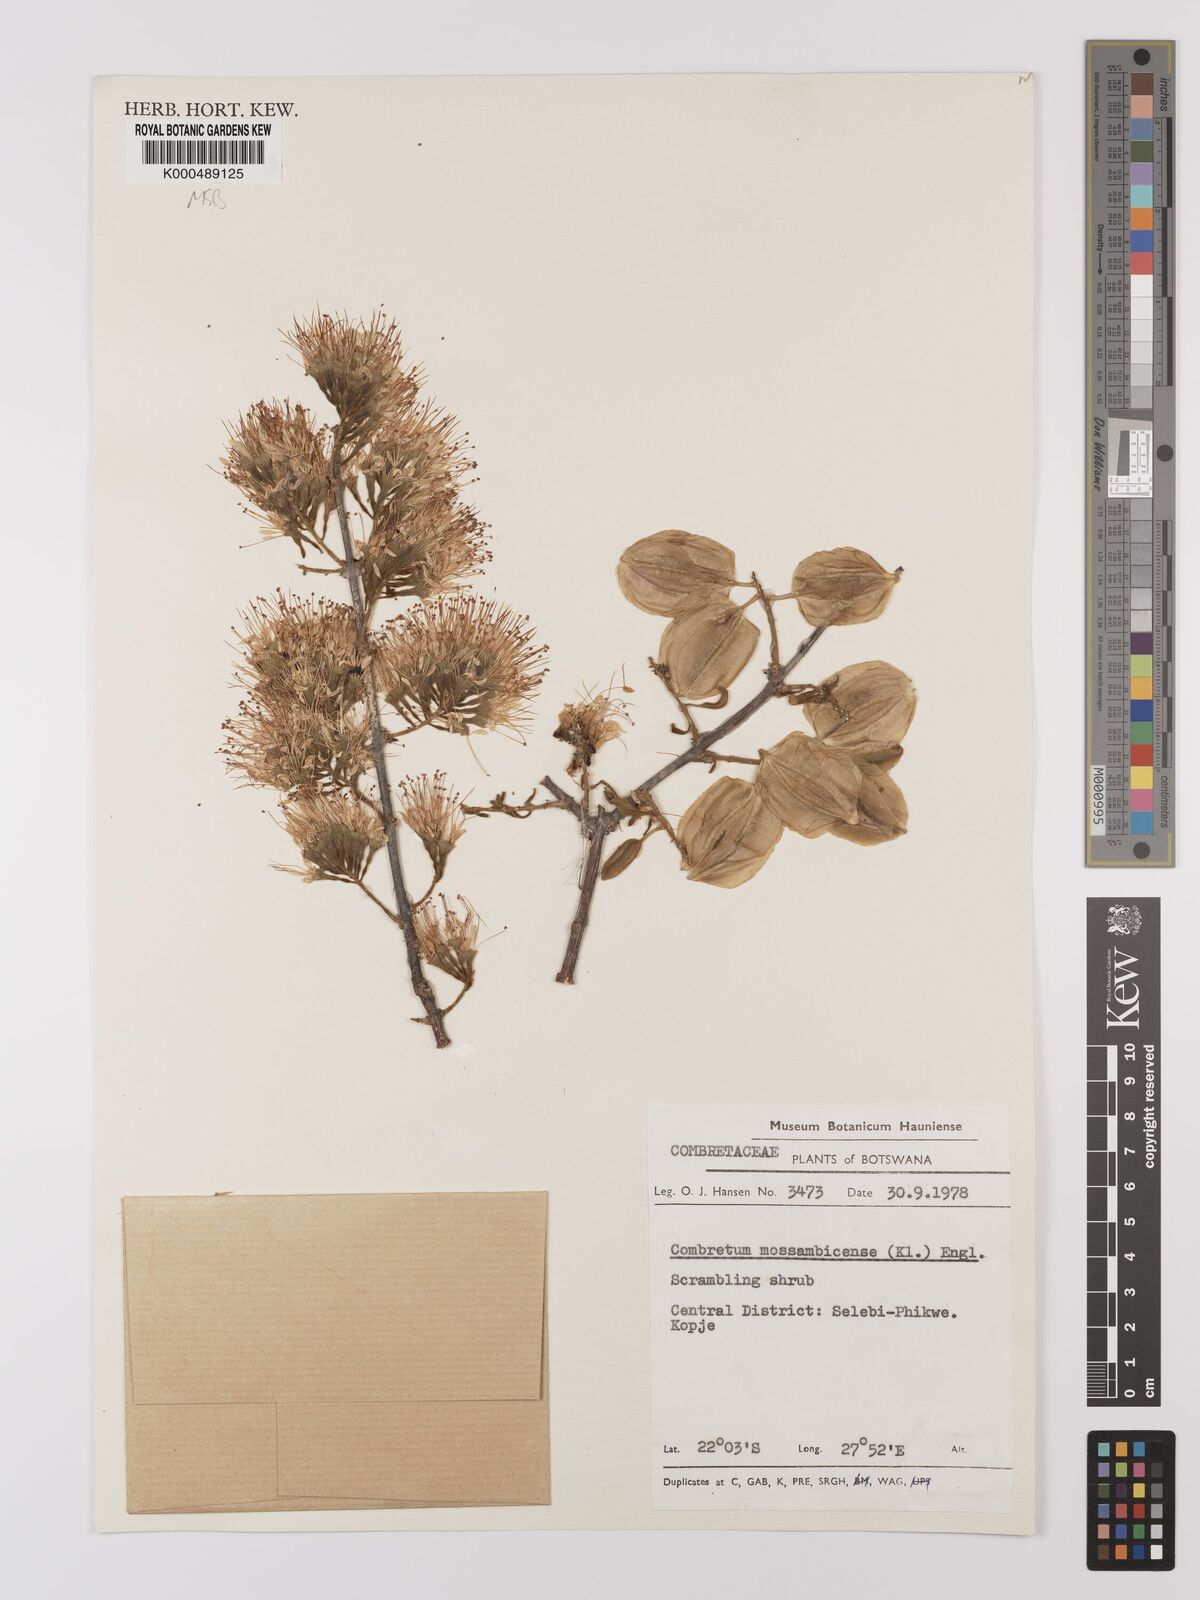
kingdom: Plantae
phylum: Tracheophyta
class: Magnoliopsida
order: Myrtales
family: Combretaceae
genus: Combretum
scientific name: Combretum mossambicense
